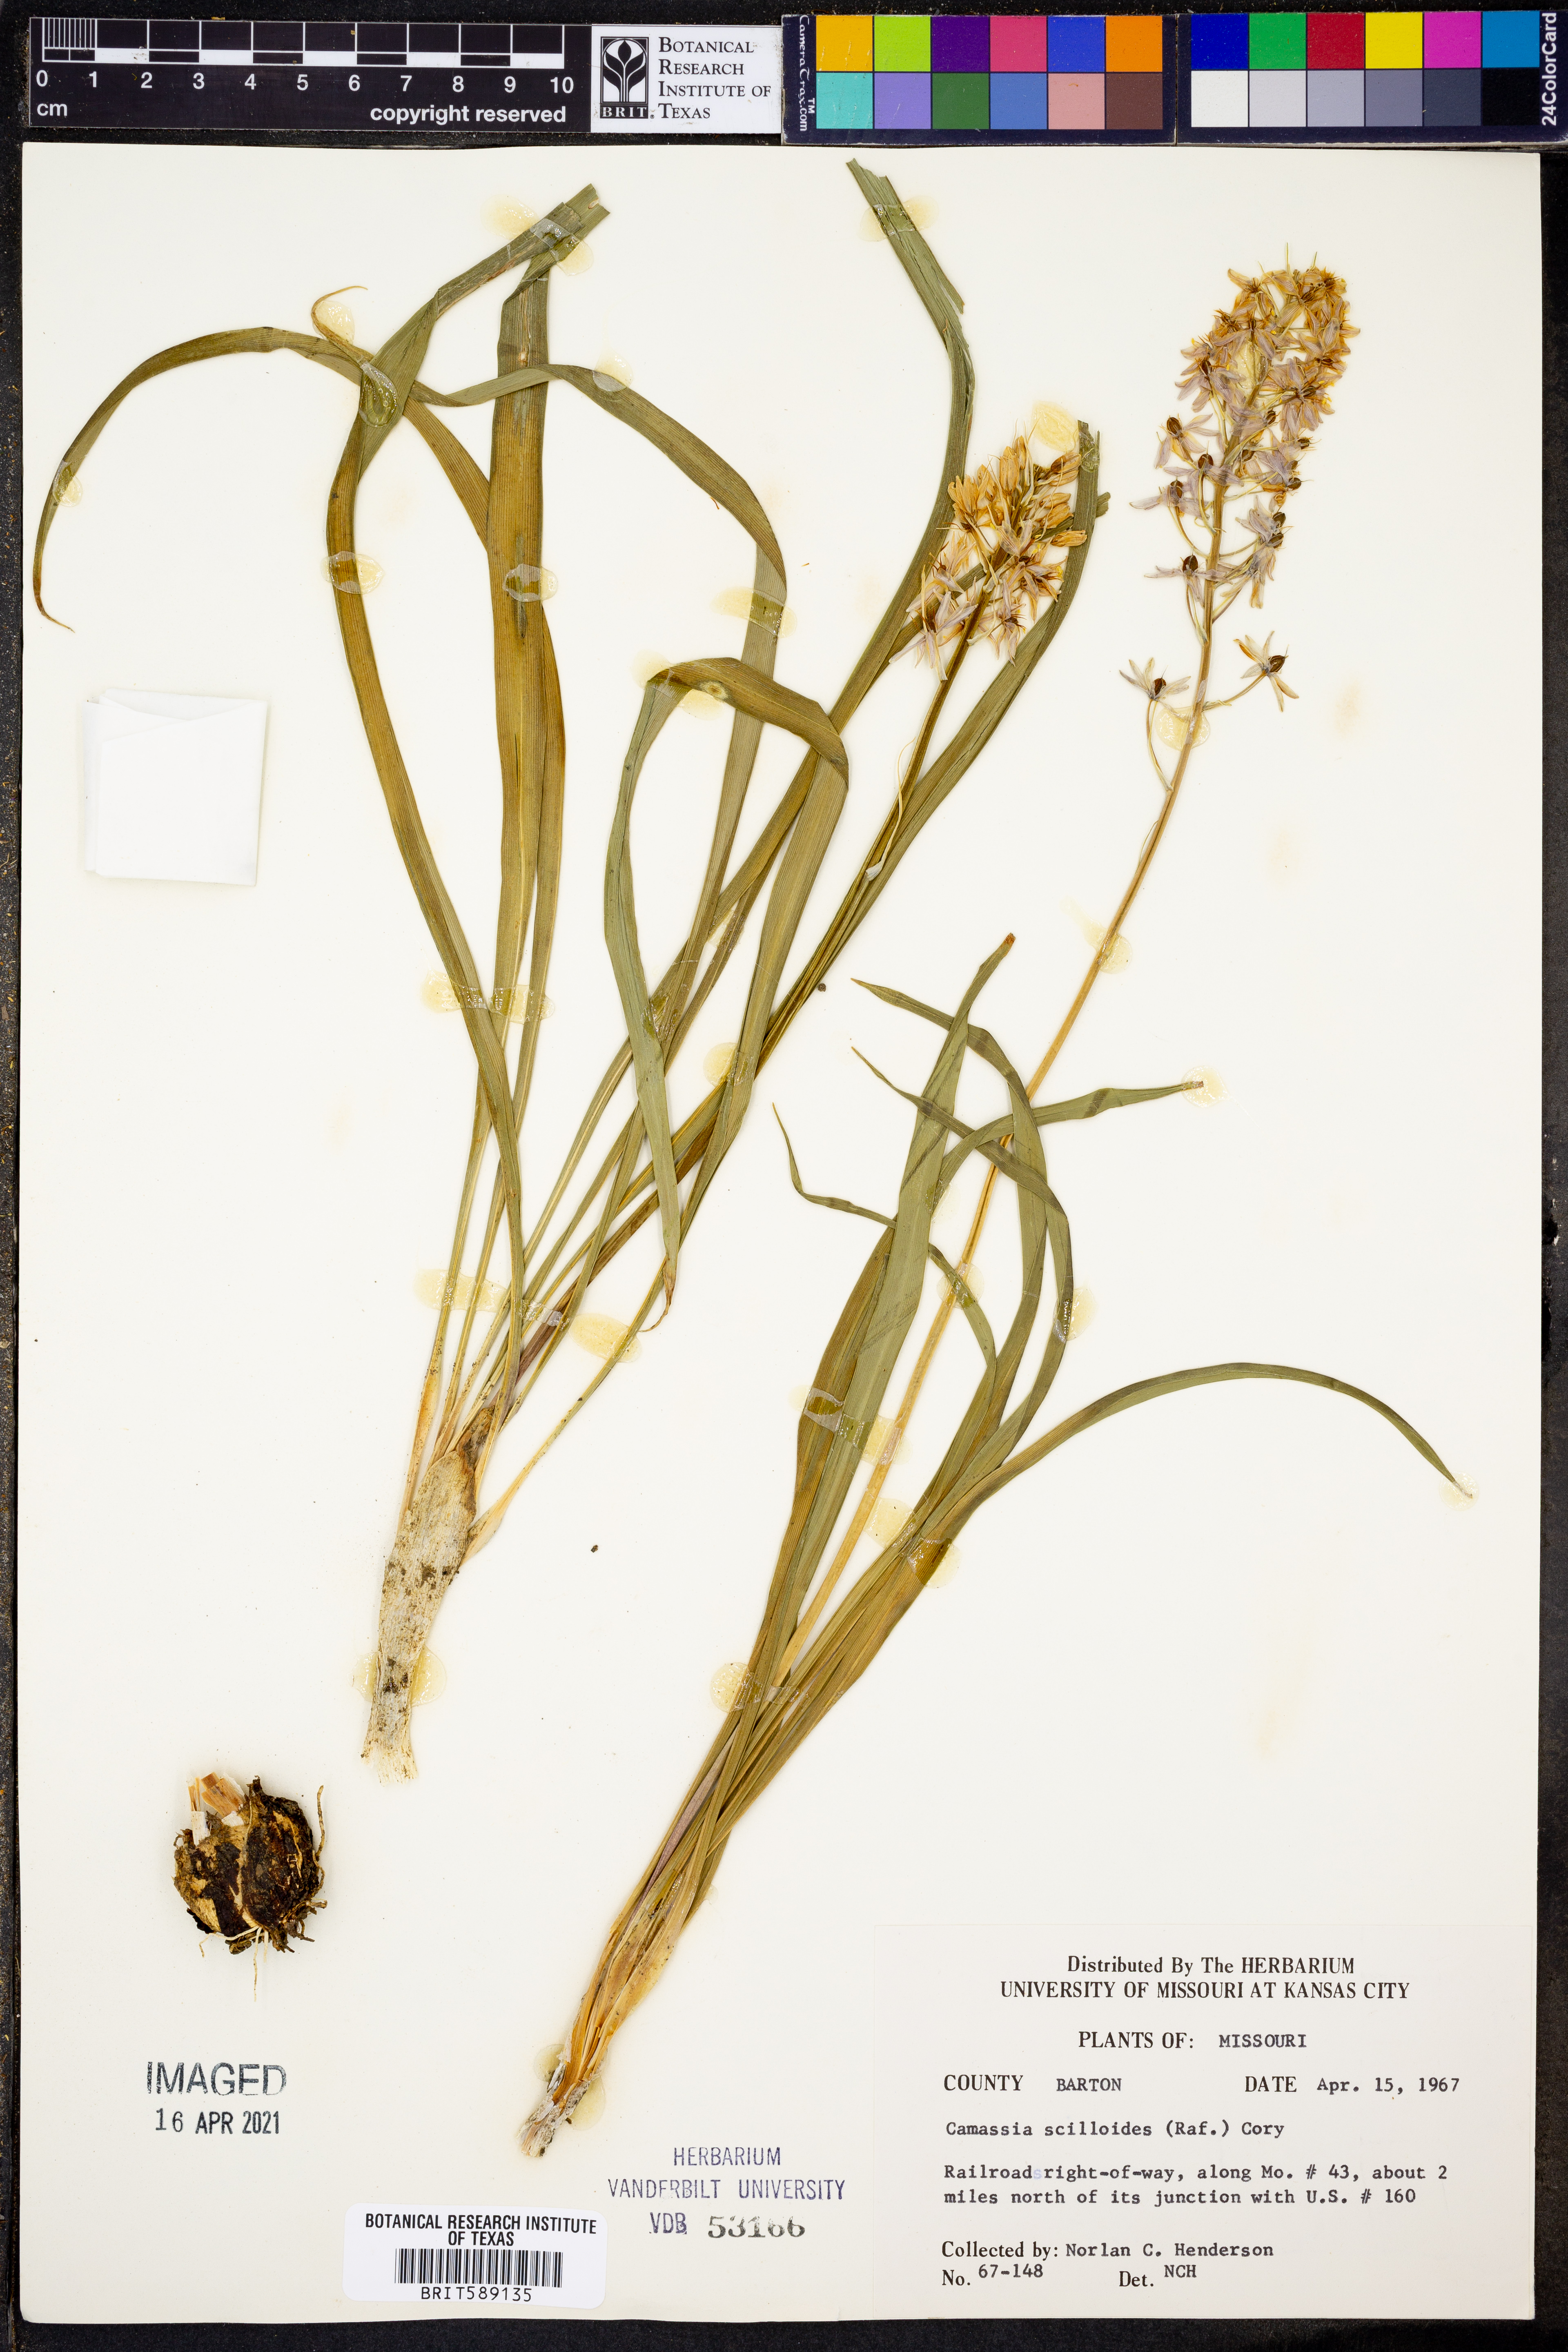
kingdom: Plantae
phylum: Tracheophyta
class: Liliopsida
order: Asparagales
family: Asparagaceae
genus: Camassia
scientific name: Camassia scilloides
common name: Wild hyacinth
